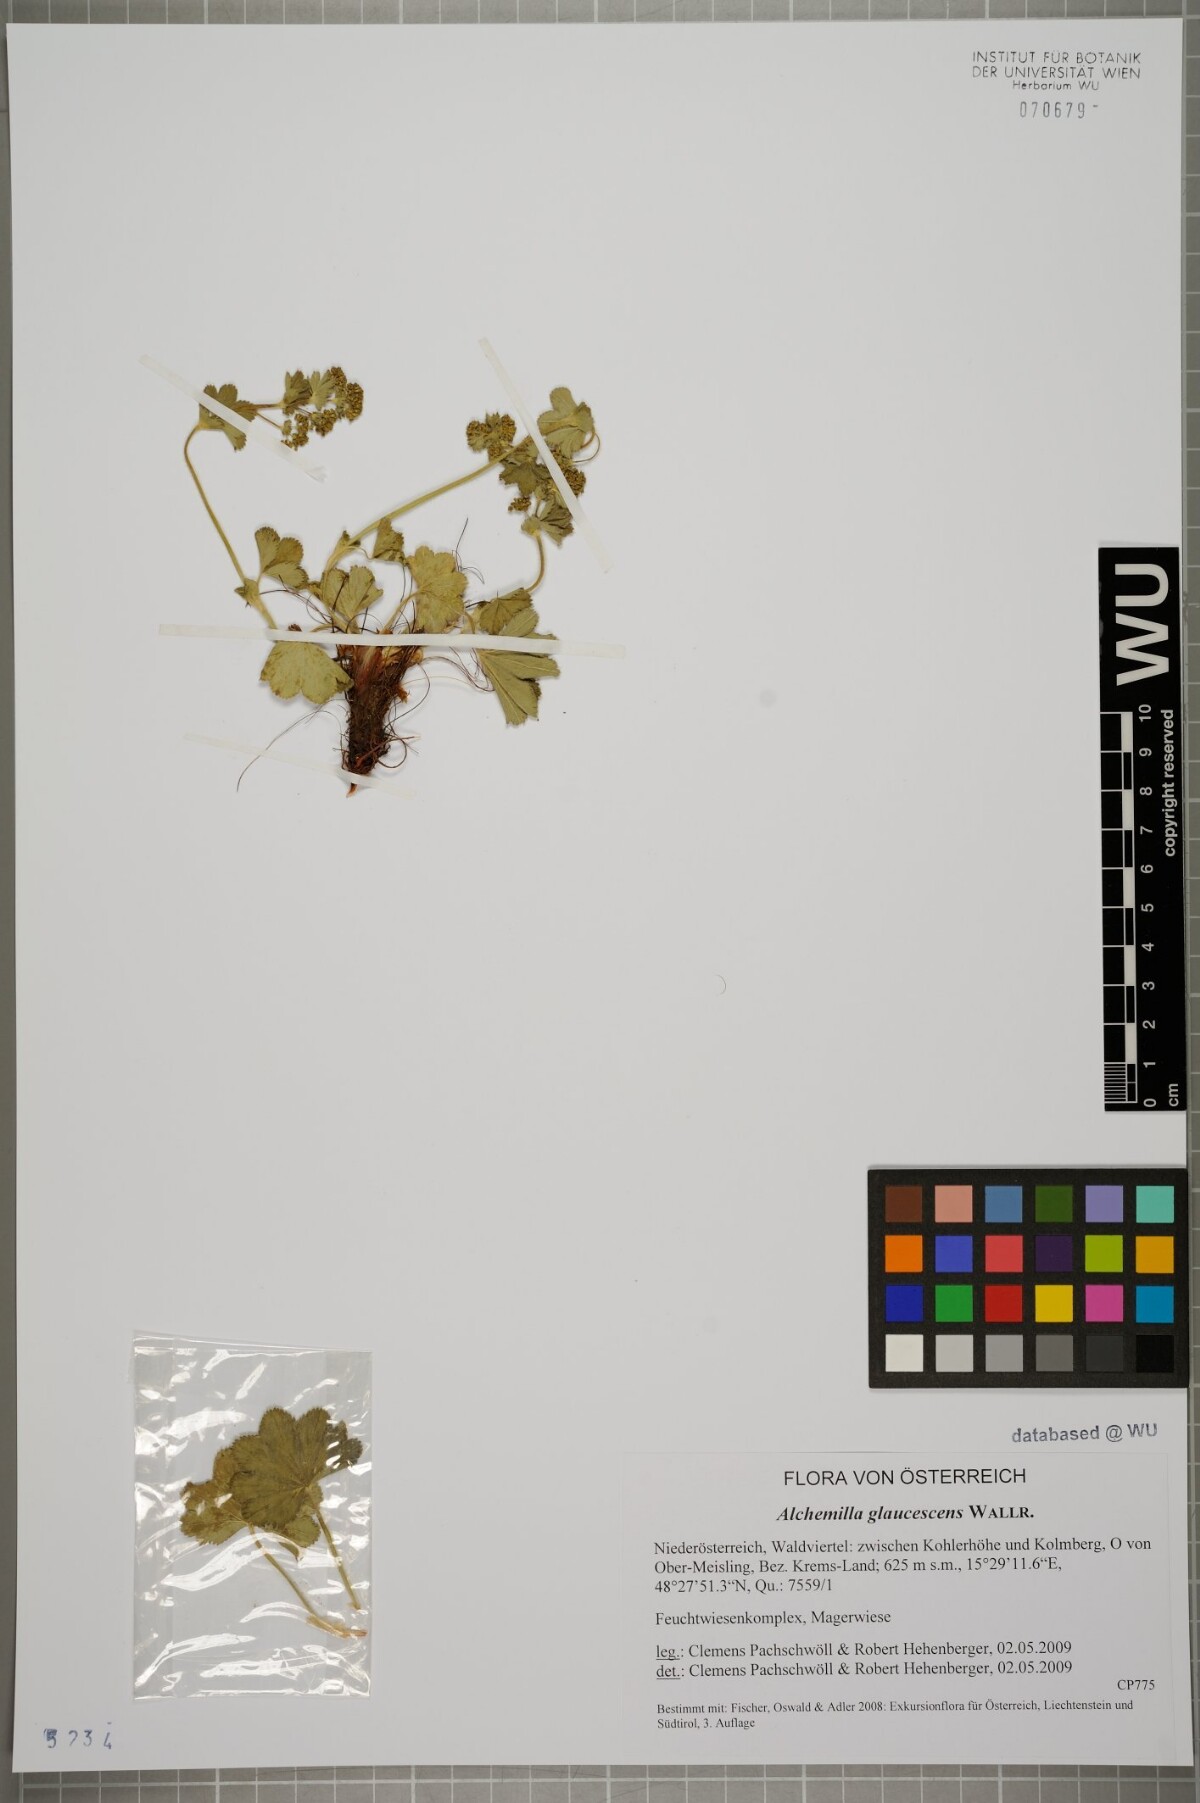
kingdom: Plantae
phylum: Tracheophyta
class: Magnoliopsida
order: Rosales
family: Rosaceae
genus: Alchemilla
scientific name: Alchemilla glaucescens
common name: Silky lady's mantle
